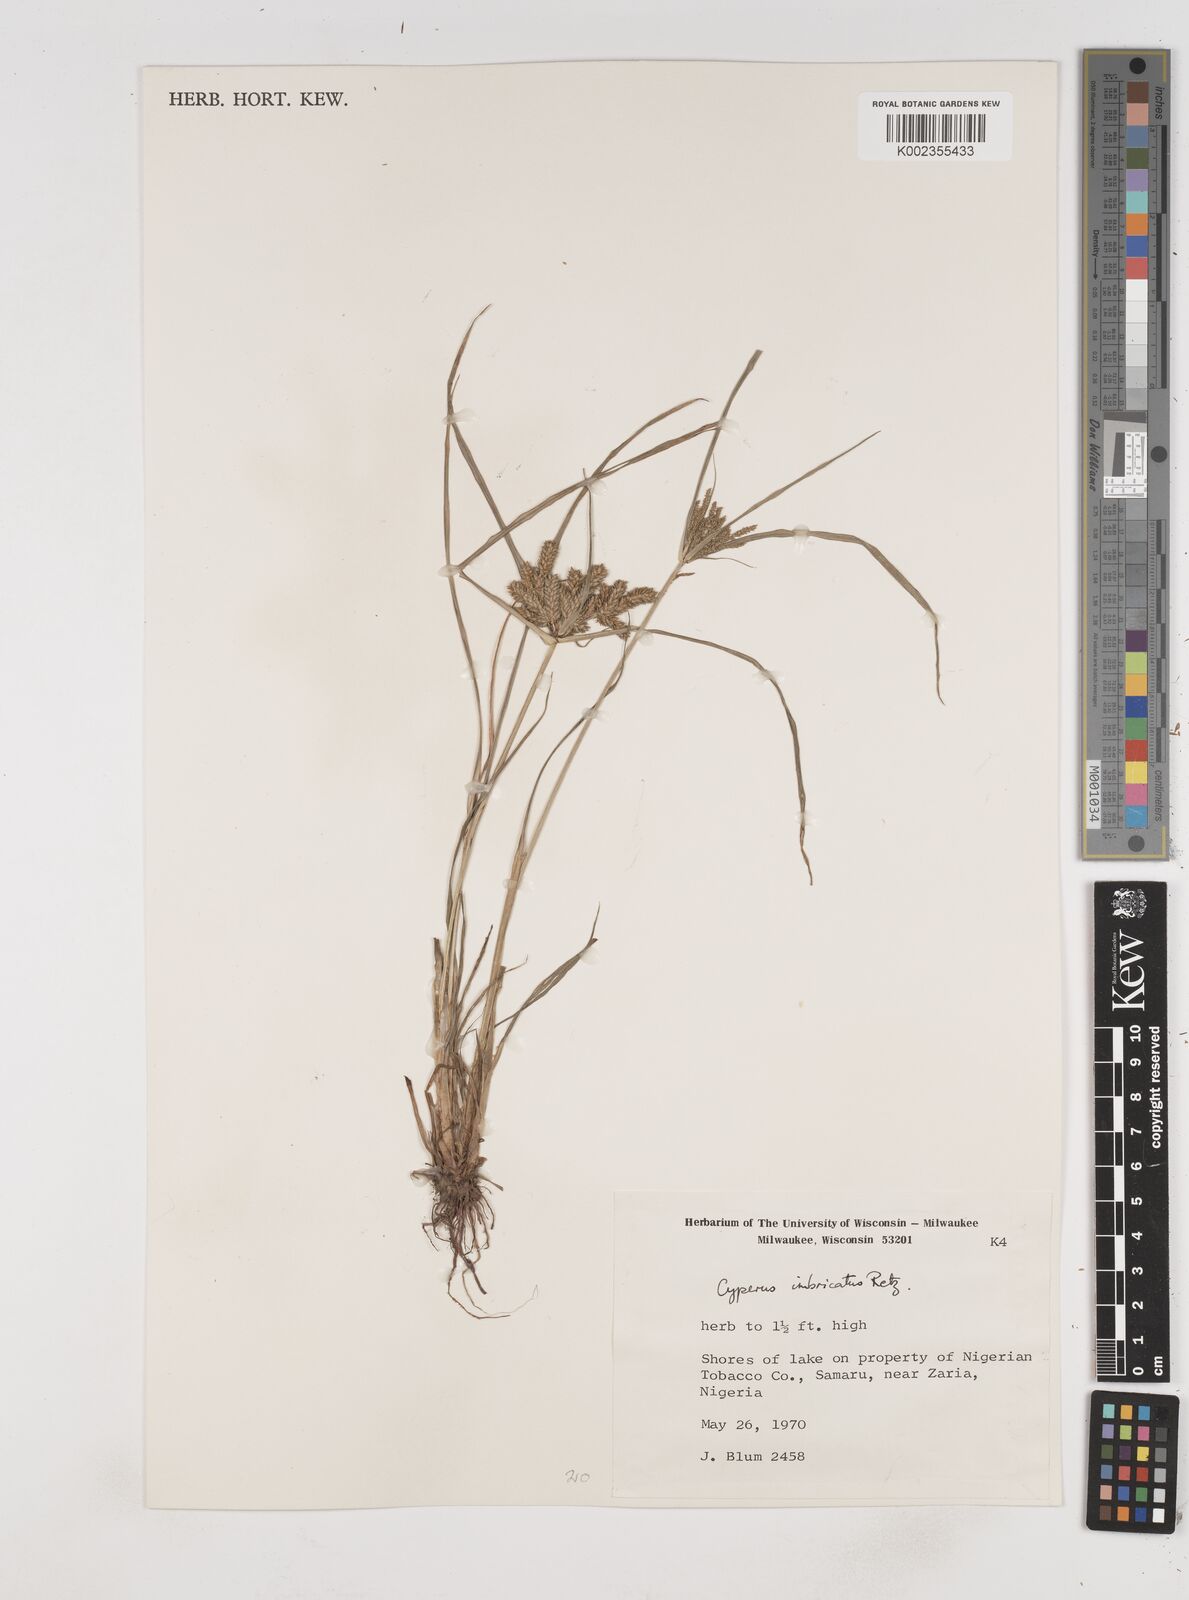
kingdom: Plantae
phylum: Tracheophyta
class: Liliopsida
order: Poales
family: Cyperaceae
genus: Cyperus
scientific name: Cyperus imbricatus
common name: Shingle flatsedge
